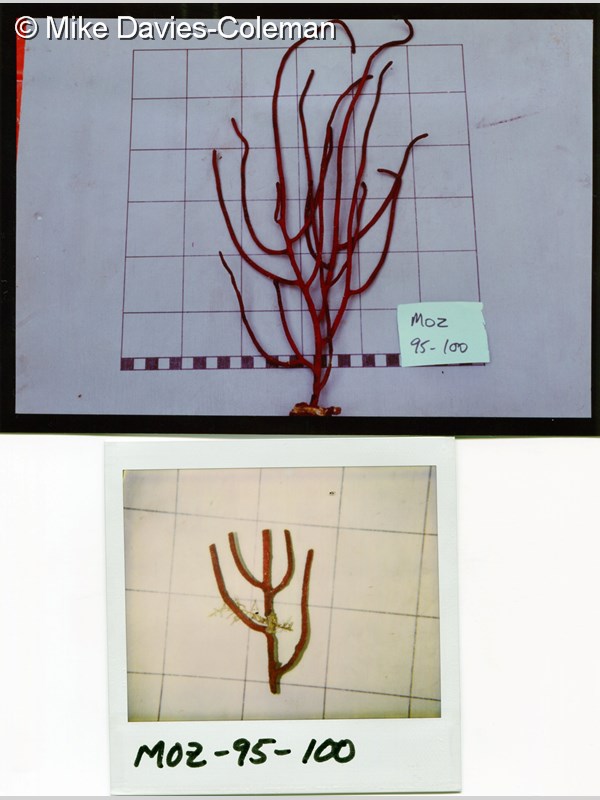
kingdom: Animalia
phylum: Cnidaria
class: Anthozoa
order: Malacalcyonacea
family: Gorgoniidae
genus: Leptogorgia
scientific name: Leptogorgia palma
